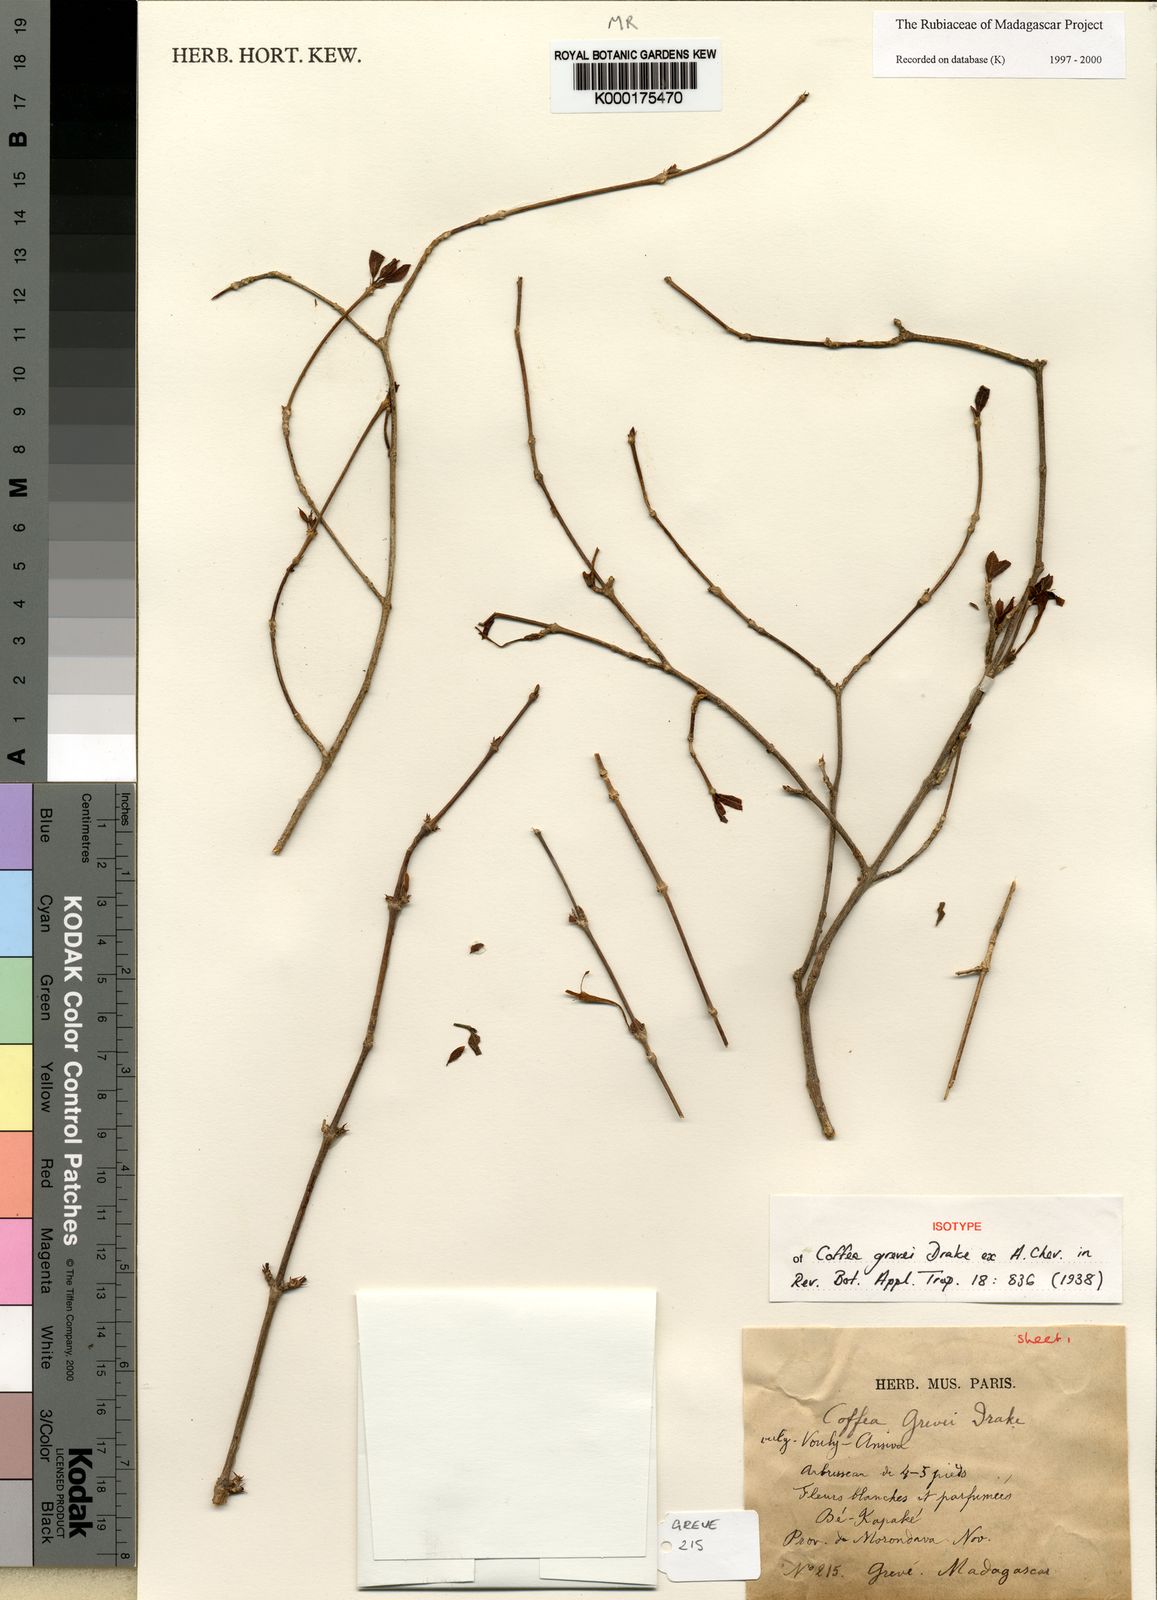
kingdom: Plantae
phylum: Tracheophyta
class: Magnoliopsida
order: Gentianales
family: Rubiaceae
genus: Coffea
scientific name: Coffea grevei
